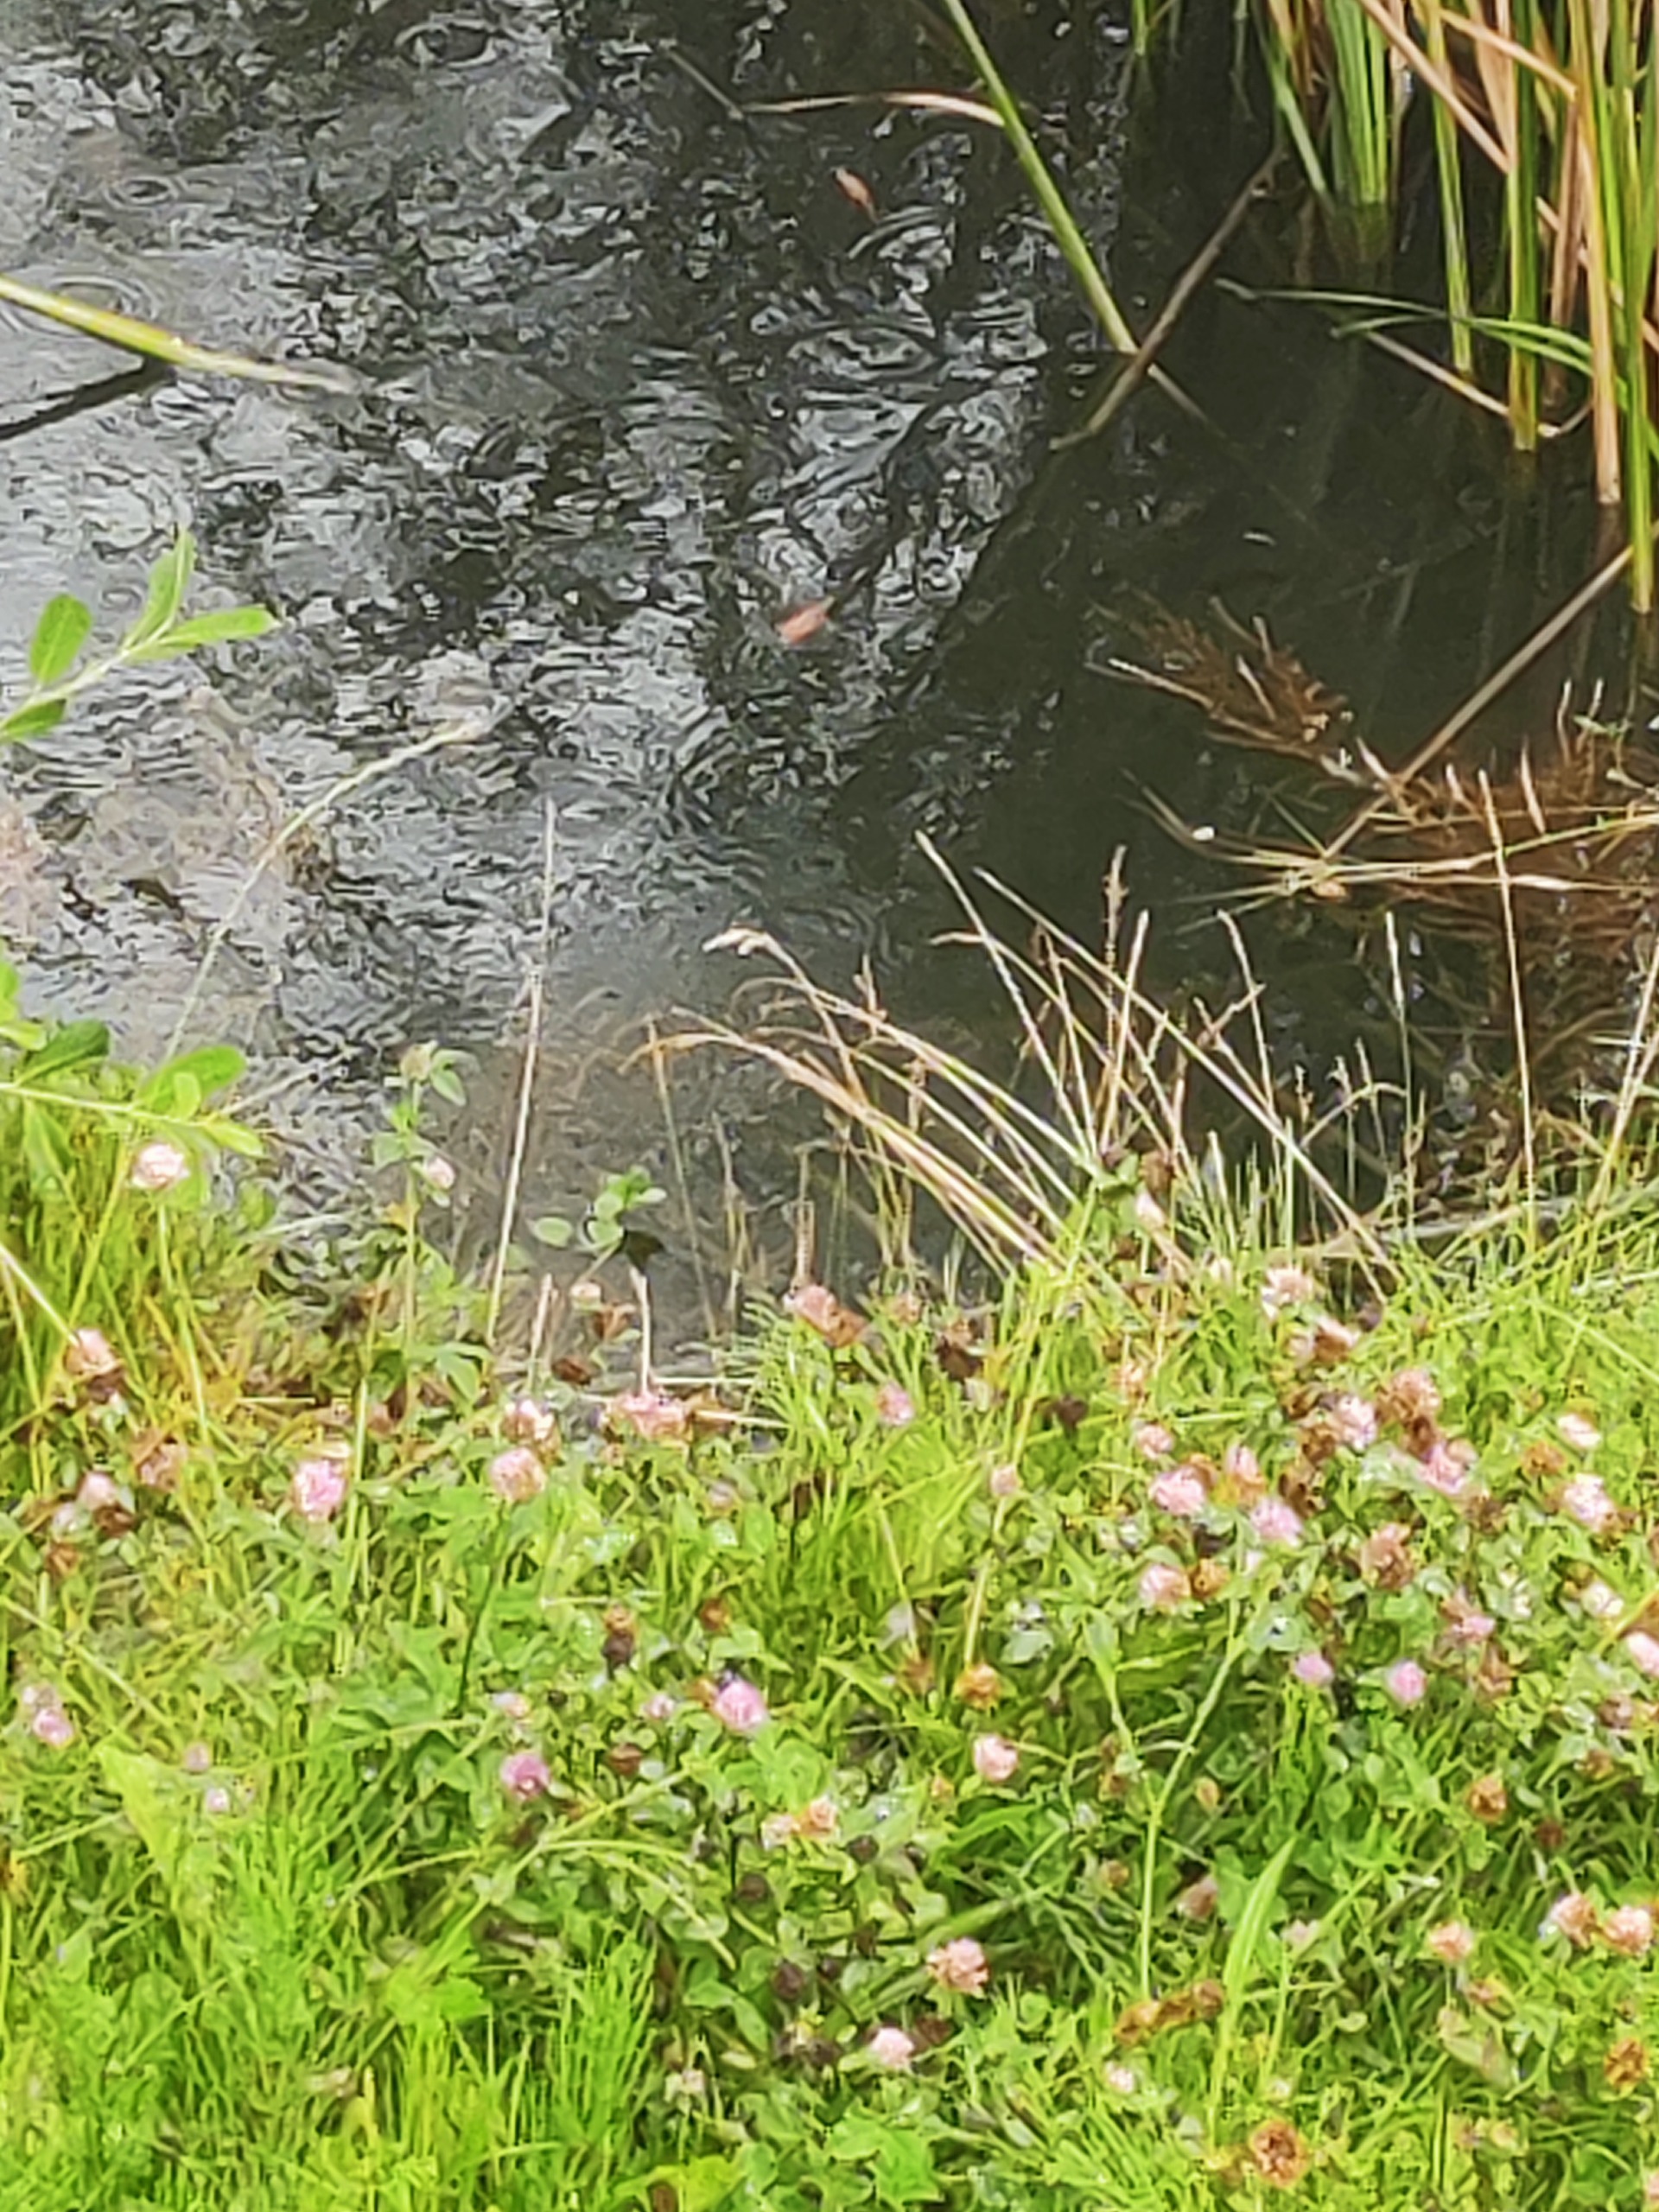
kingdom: Animalia
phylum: Chordata
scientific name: Chordata
